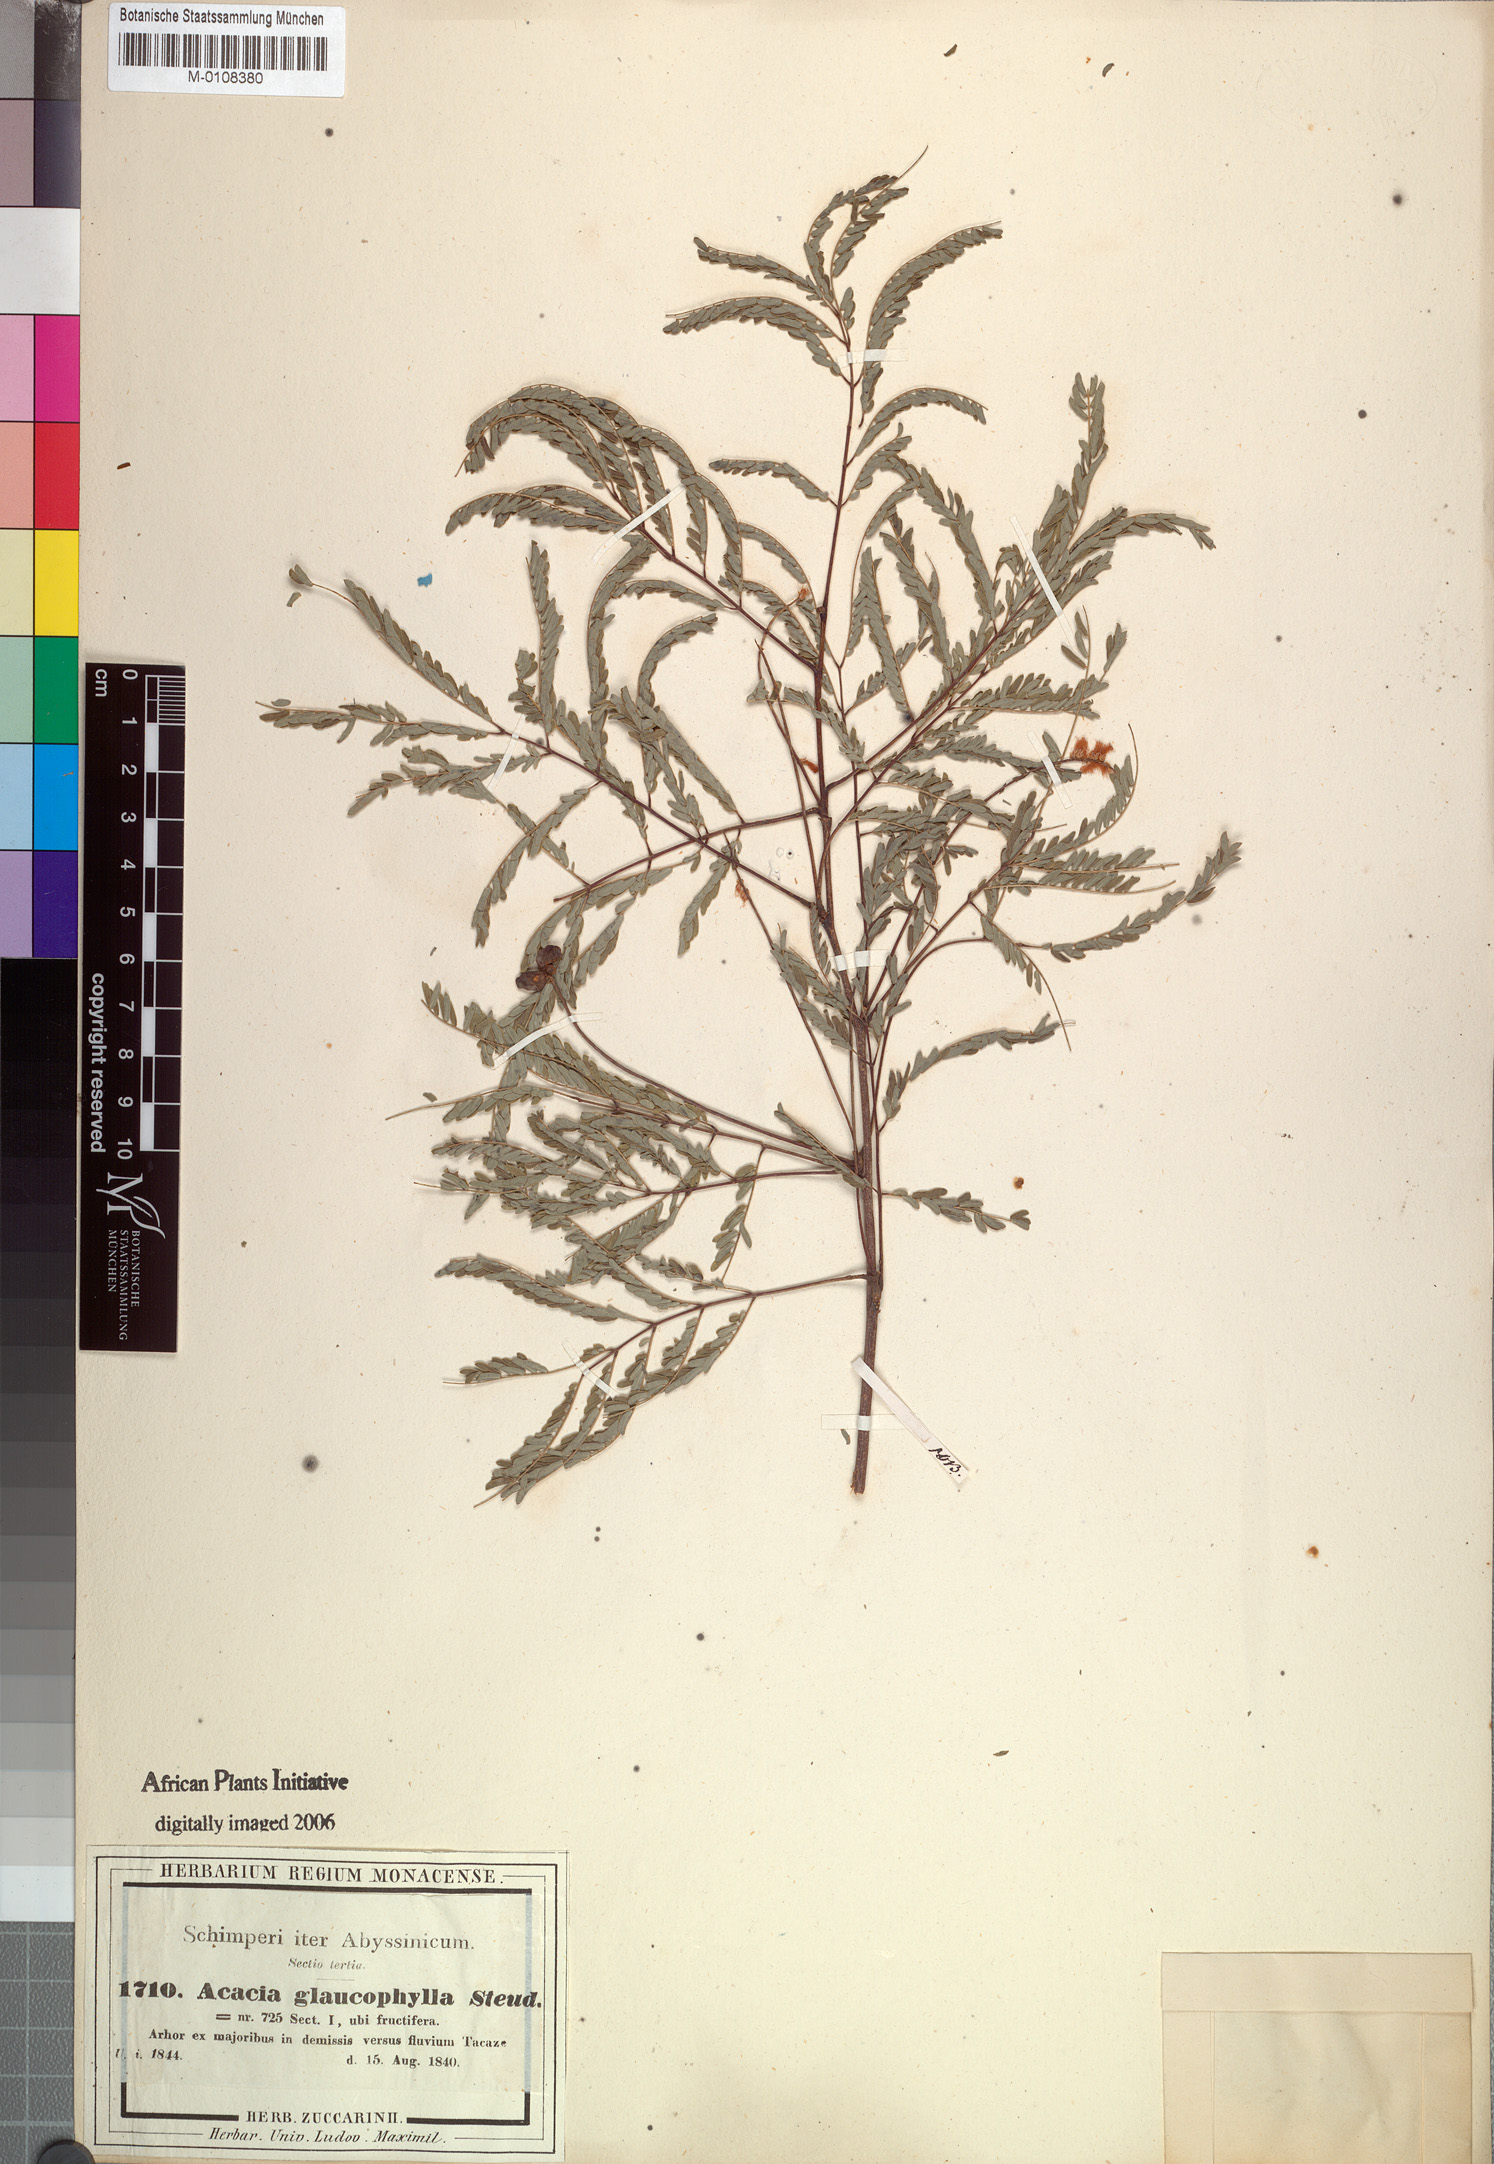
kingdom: Plantae
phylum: Tracheophyta
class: Magnoliopsida
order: Fabales
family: Fabaceae
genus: Senegalia
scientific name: Senegalia asak
